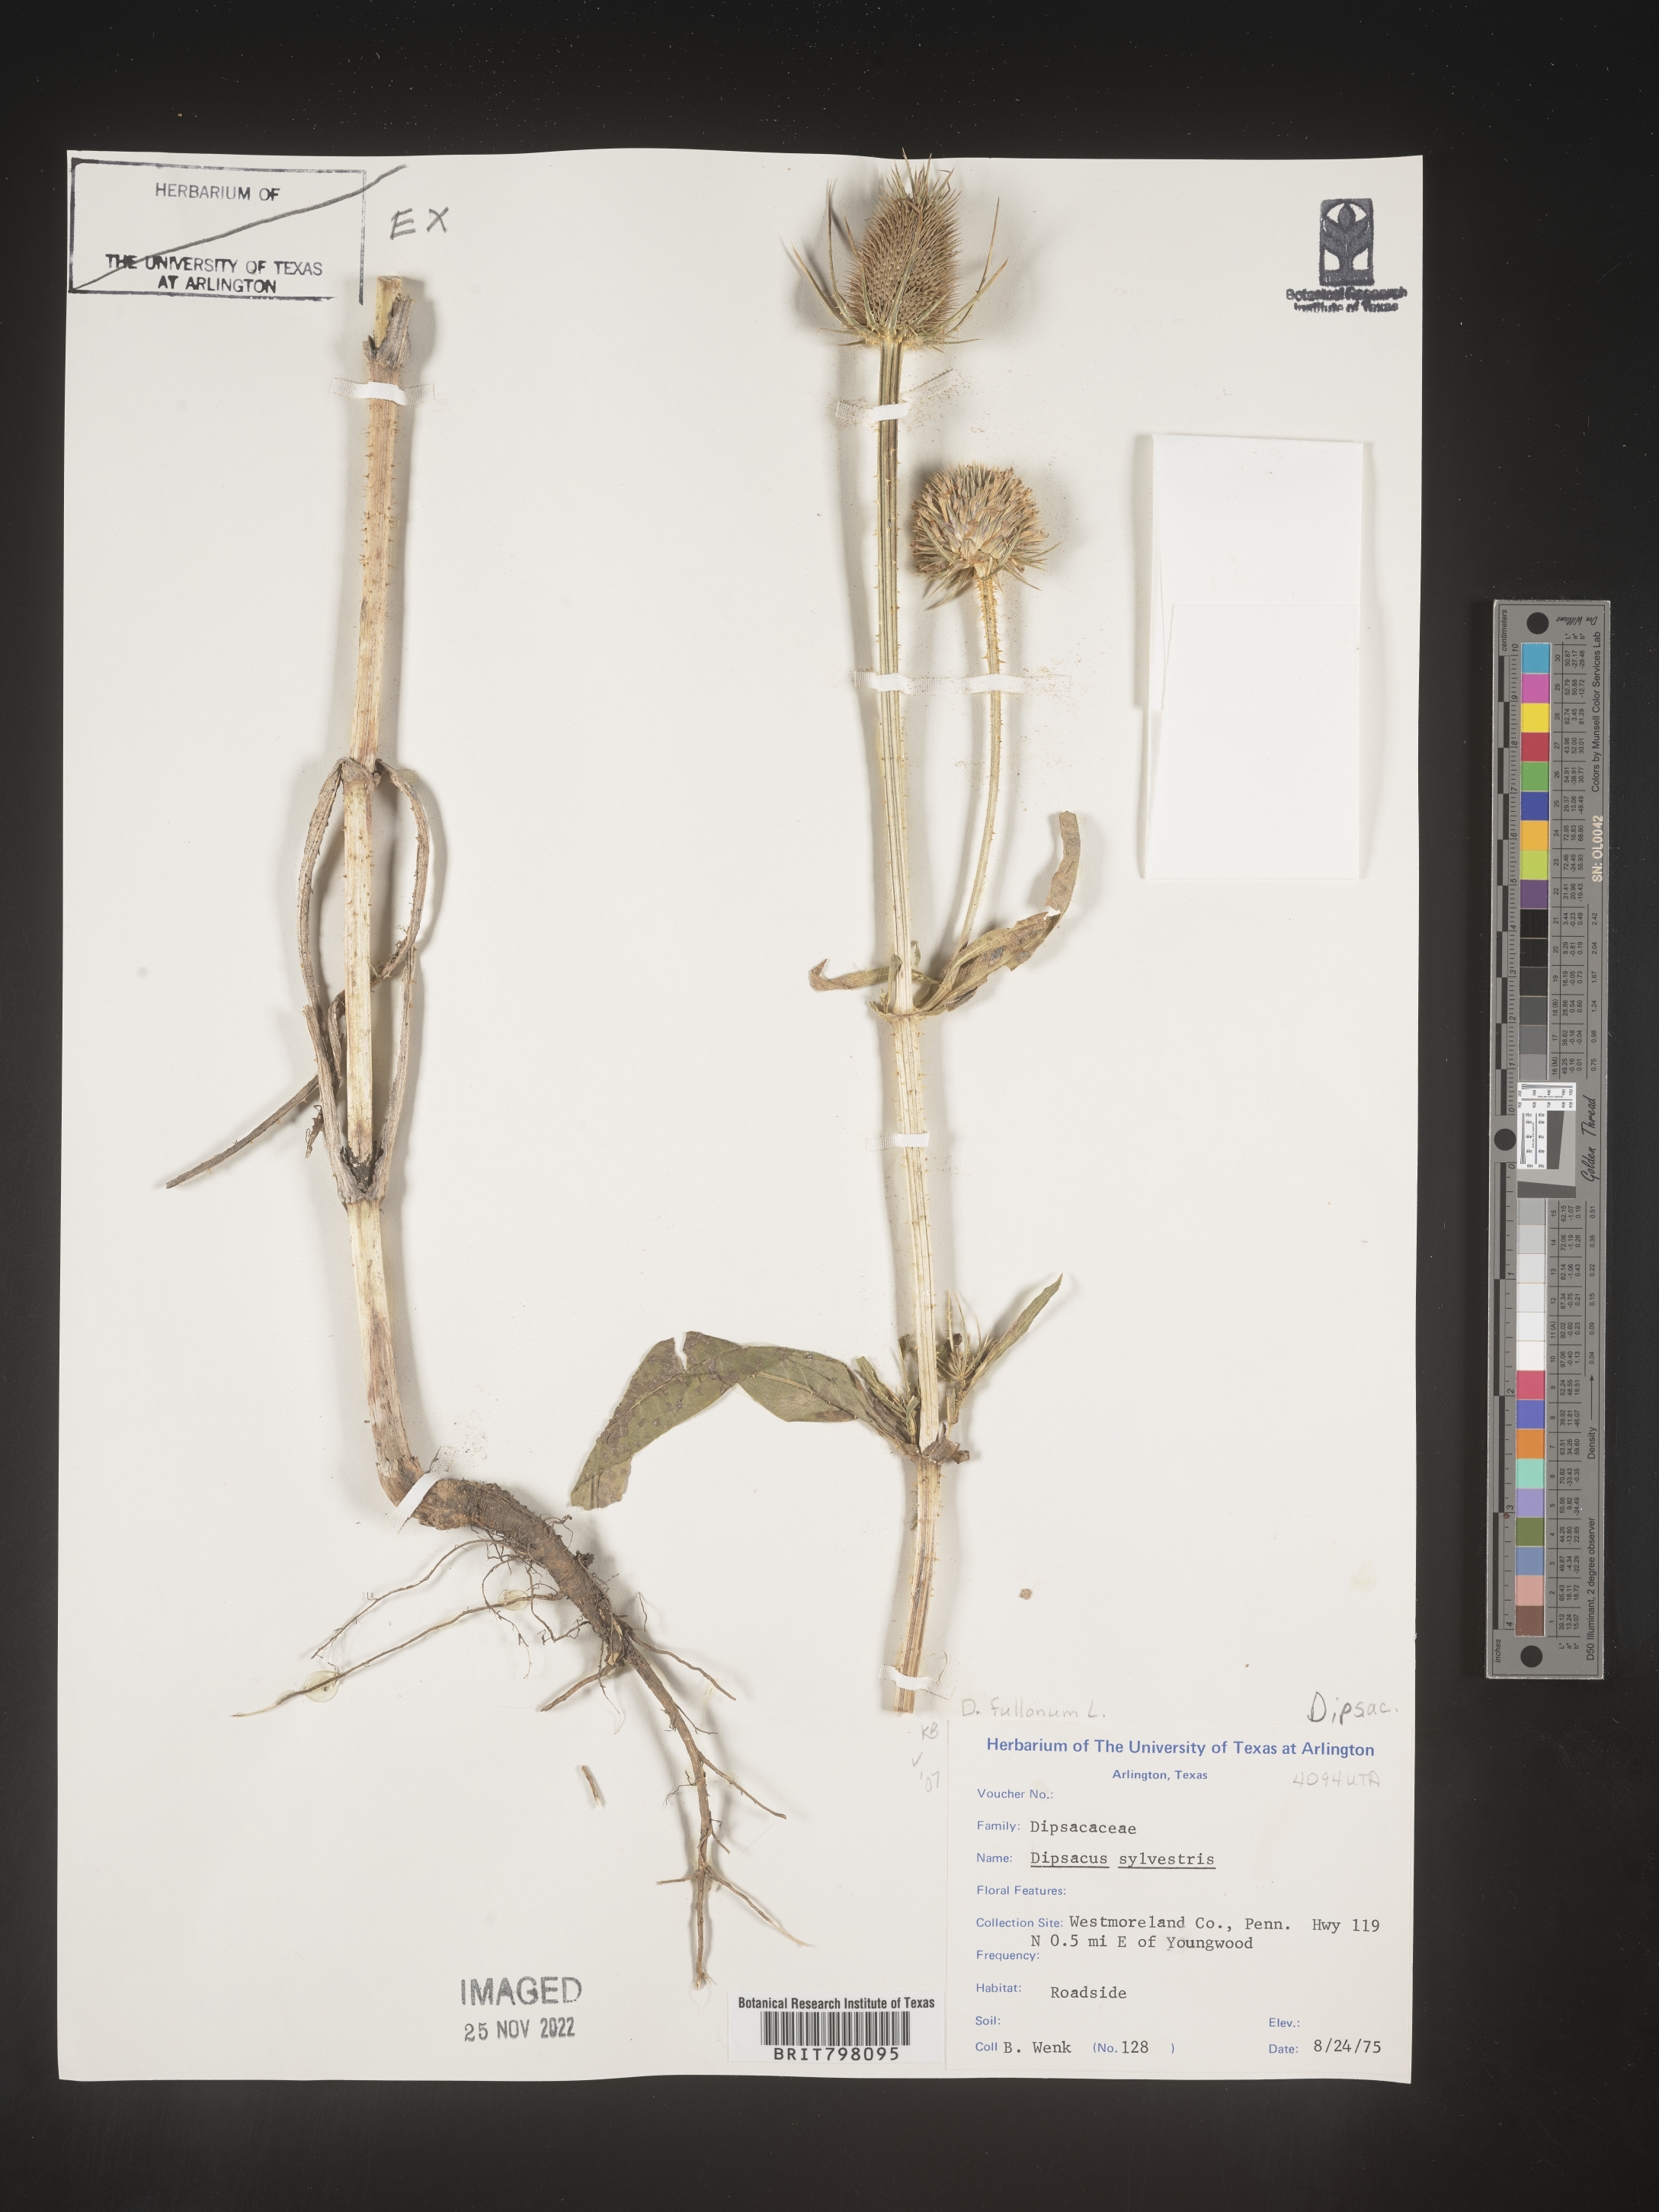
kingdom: Plantae
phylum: Tracheophyta
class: Magnoliopsida
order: Dipsacales
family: Caprifoliaceae
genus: Dipsacus
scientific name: Dipsacus
